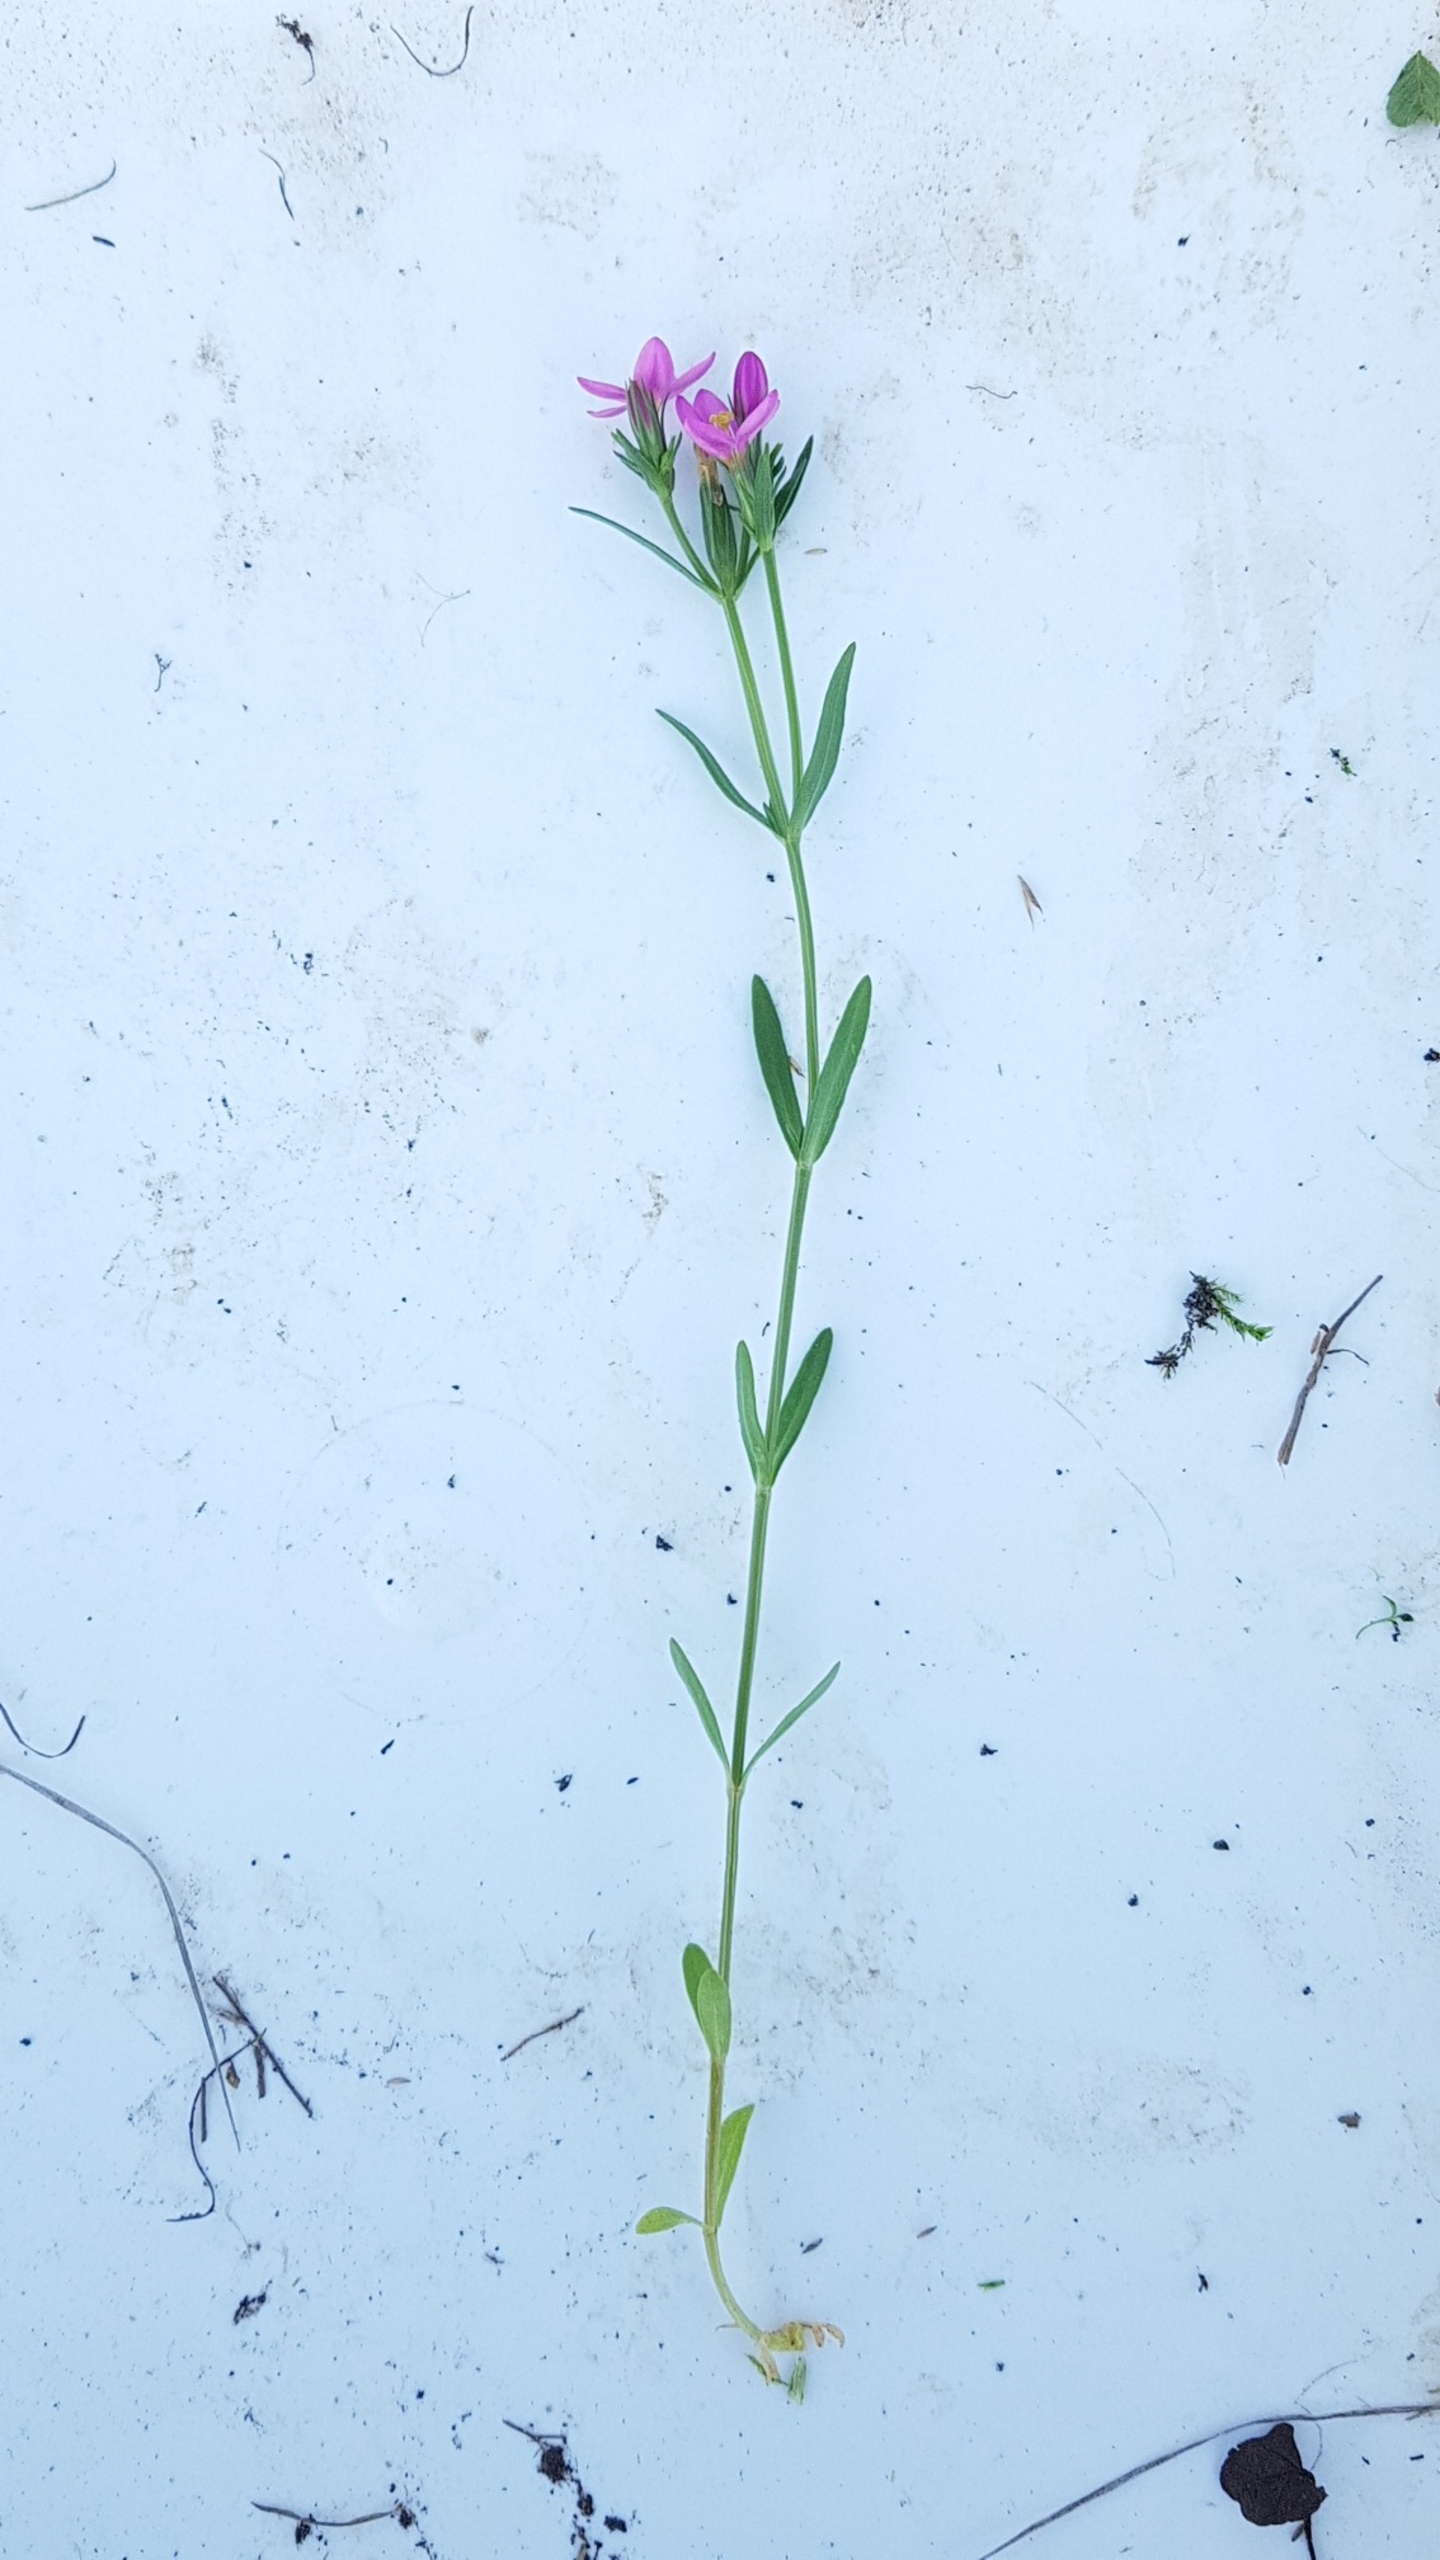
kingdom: Plantae
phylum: Tracheophyta
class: Magnoliopsida
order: Gentianales
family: Gentianaceae
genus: Centaurium
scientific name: Centaurium littorale
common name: Strand-tusindgylden
